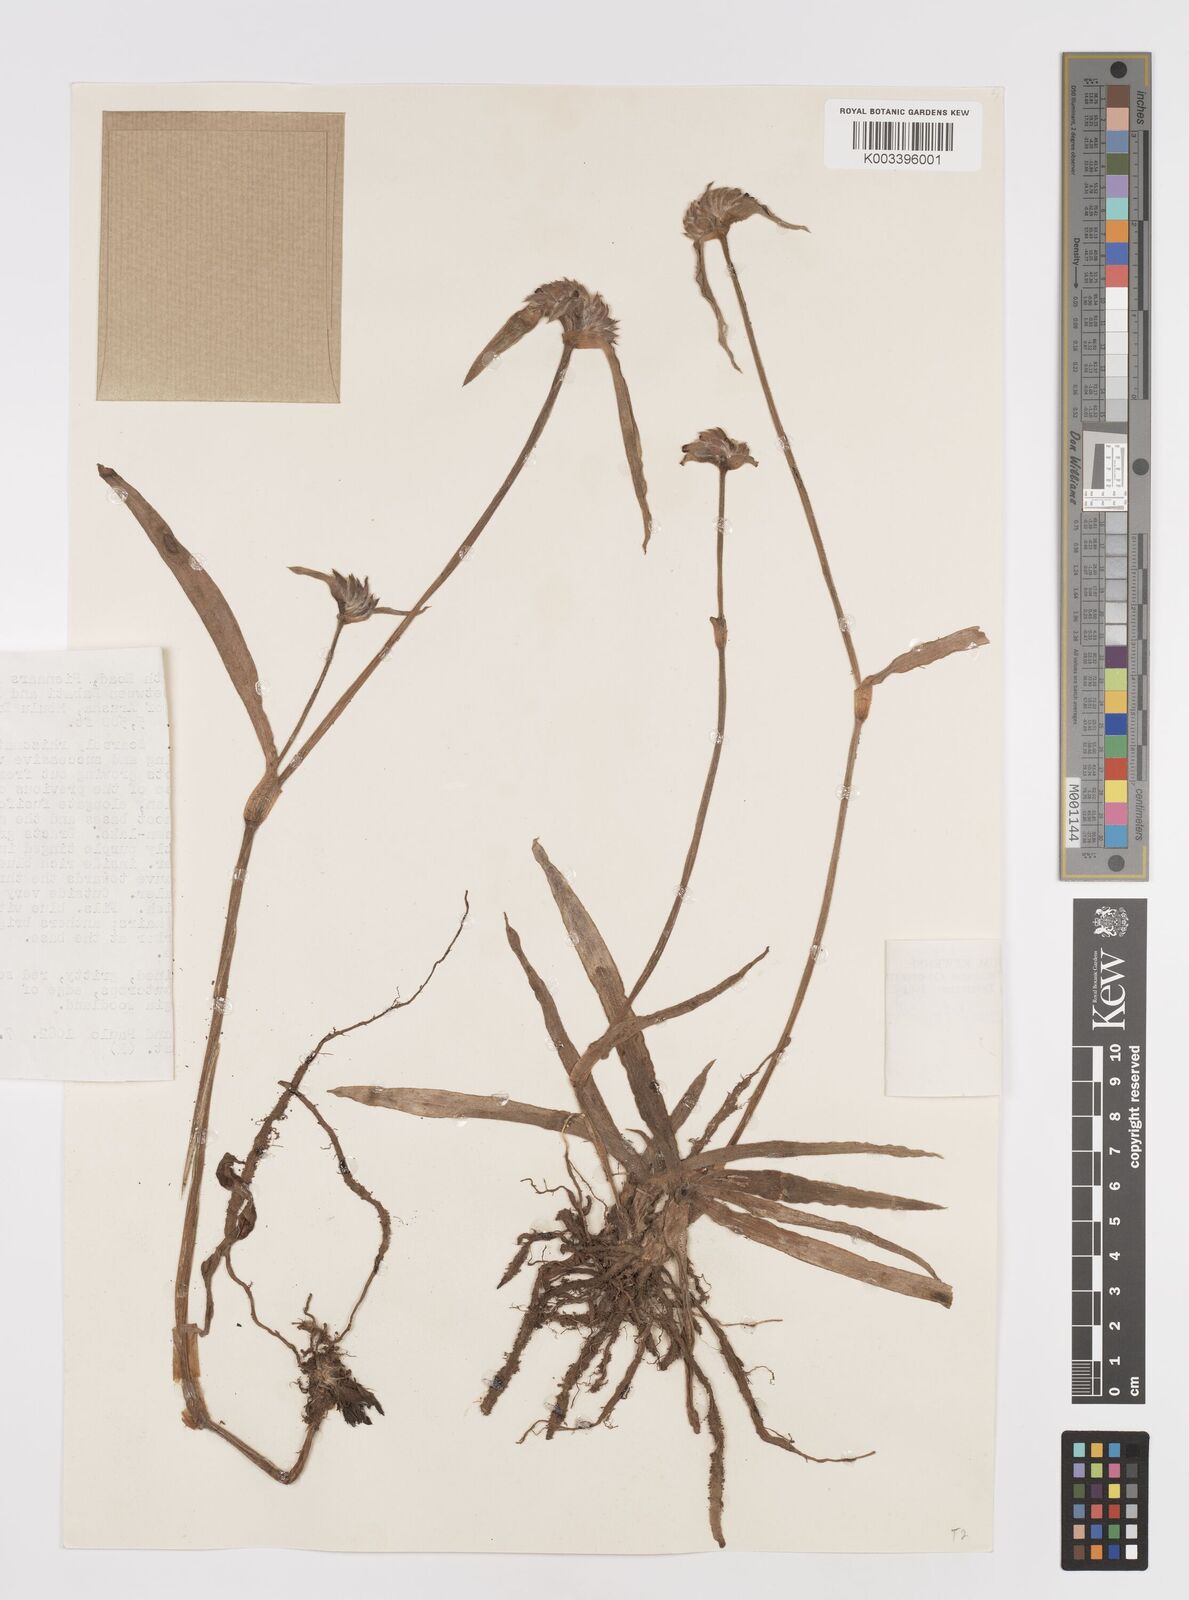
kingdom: Plantae
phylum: Tracheophyta
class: Liliopsida
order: Commelinales
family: Commelinaceae
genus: Cyanotis
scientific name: Cyanotis longifolia
